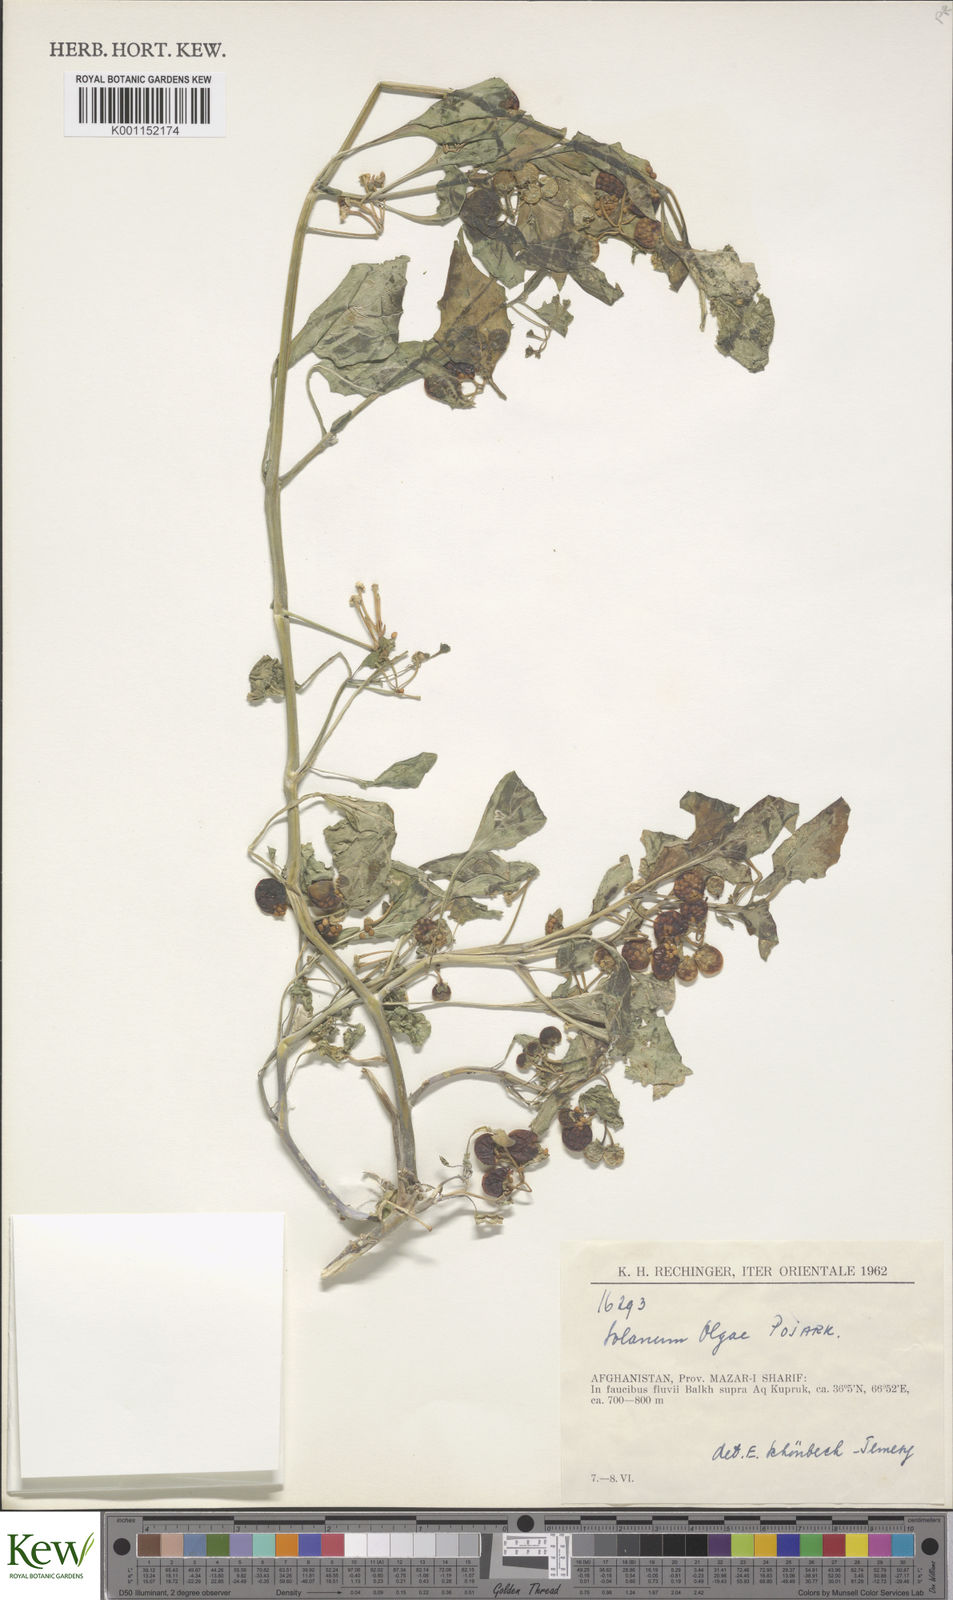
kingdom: Plantae
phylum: Tracheophyta
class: Magnoliopsida
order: Solanales
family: Solanaceae
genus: Solanum
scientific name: Solanum villosum
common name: Red nightshade
